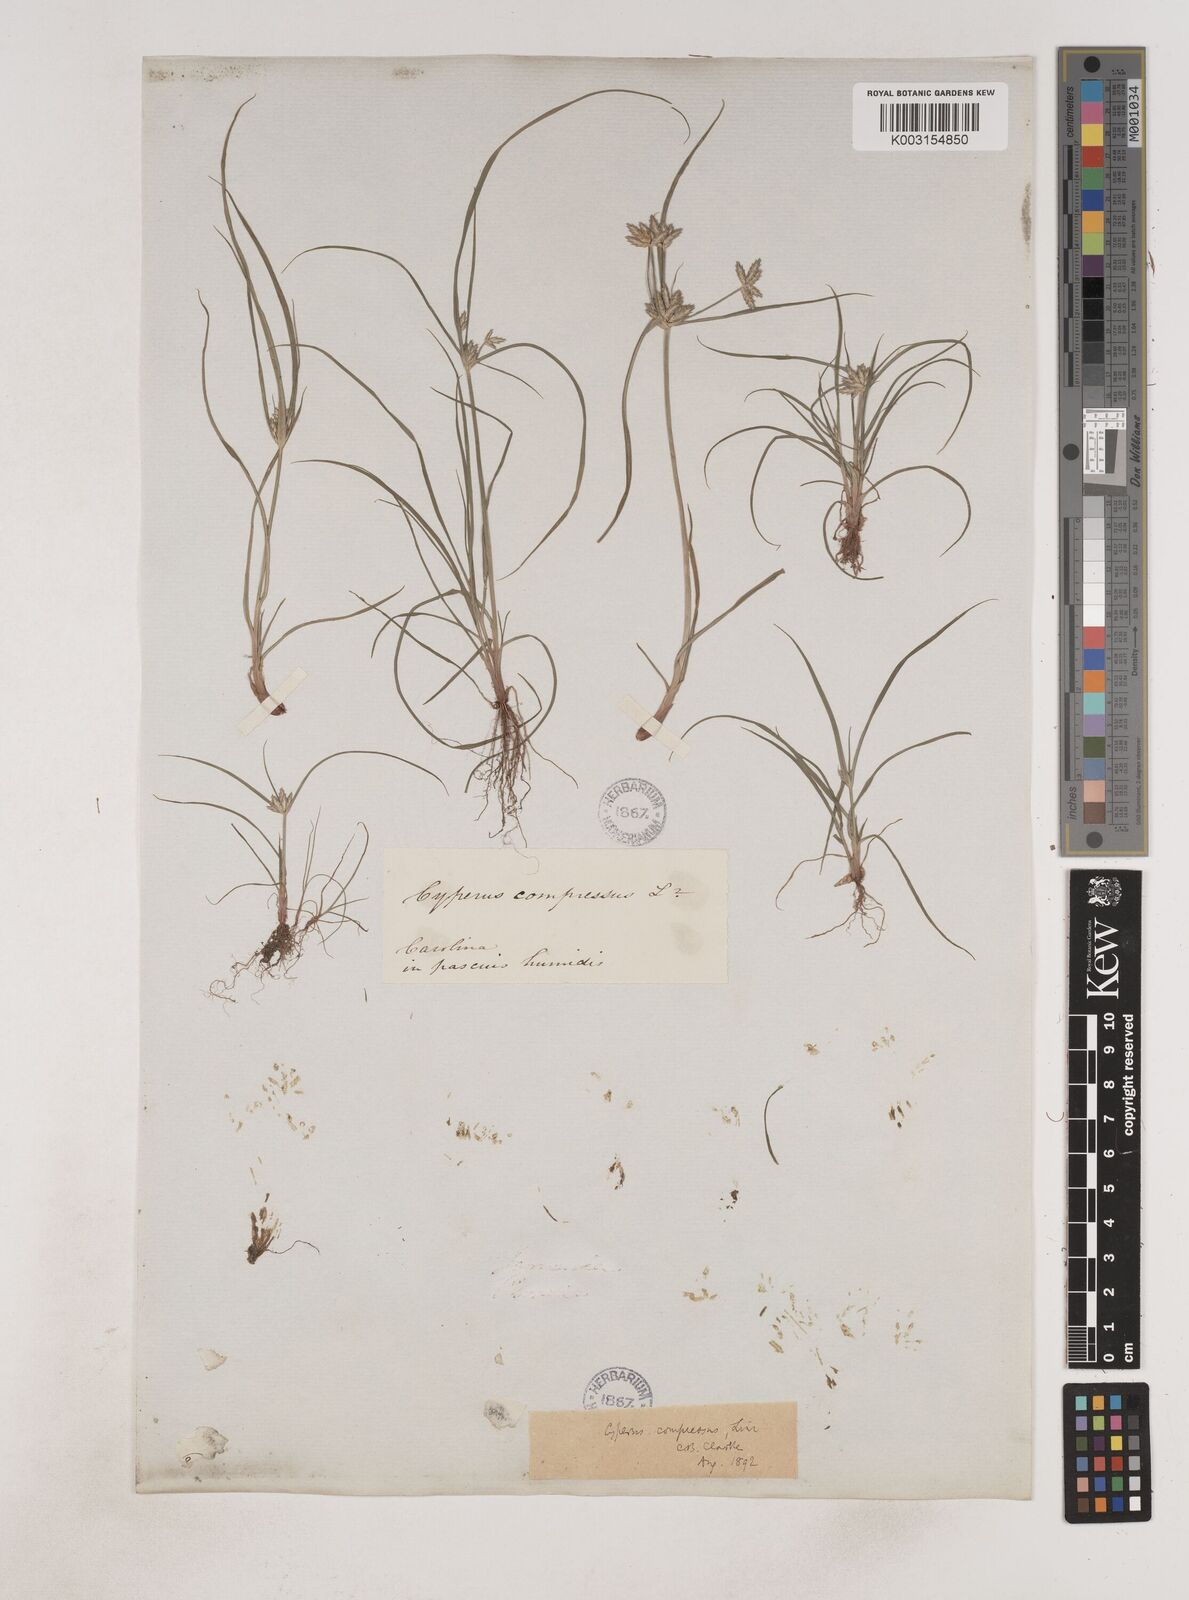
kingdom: Plantae
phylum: Tracheophyta
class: Liliopsida
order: Poales
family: Cyperaceae
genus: Cyperus
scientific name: Cyperus compressus
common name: Poorland flatsedge
